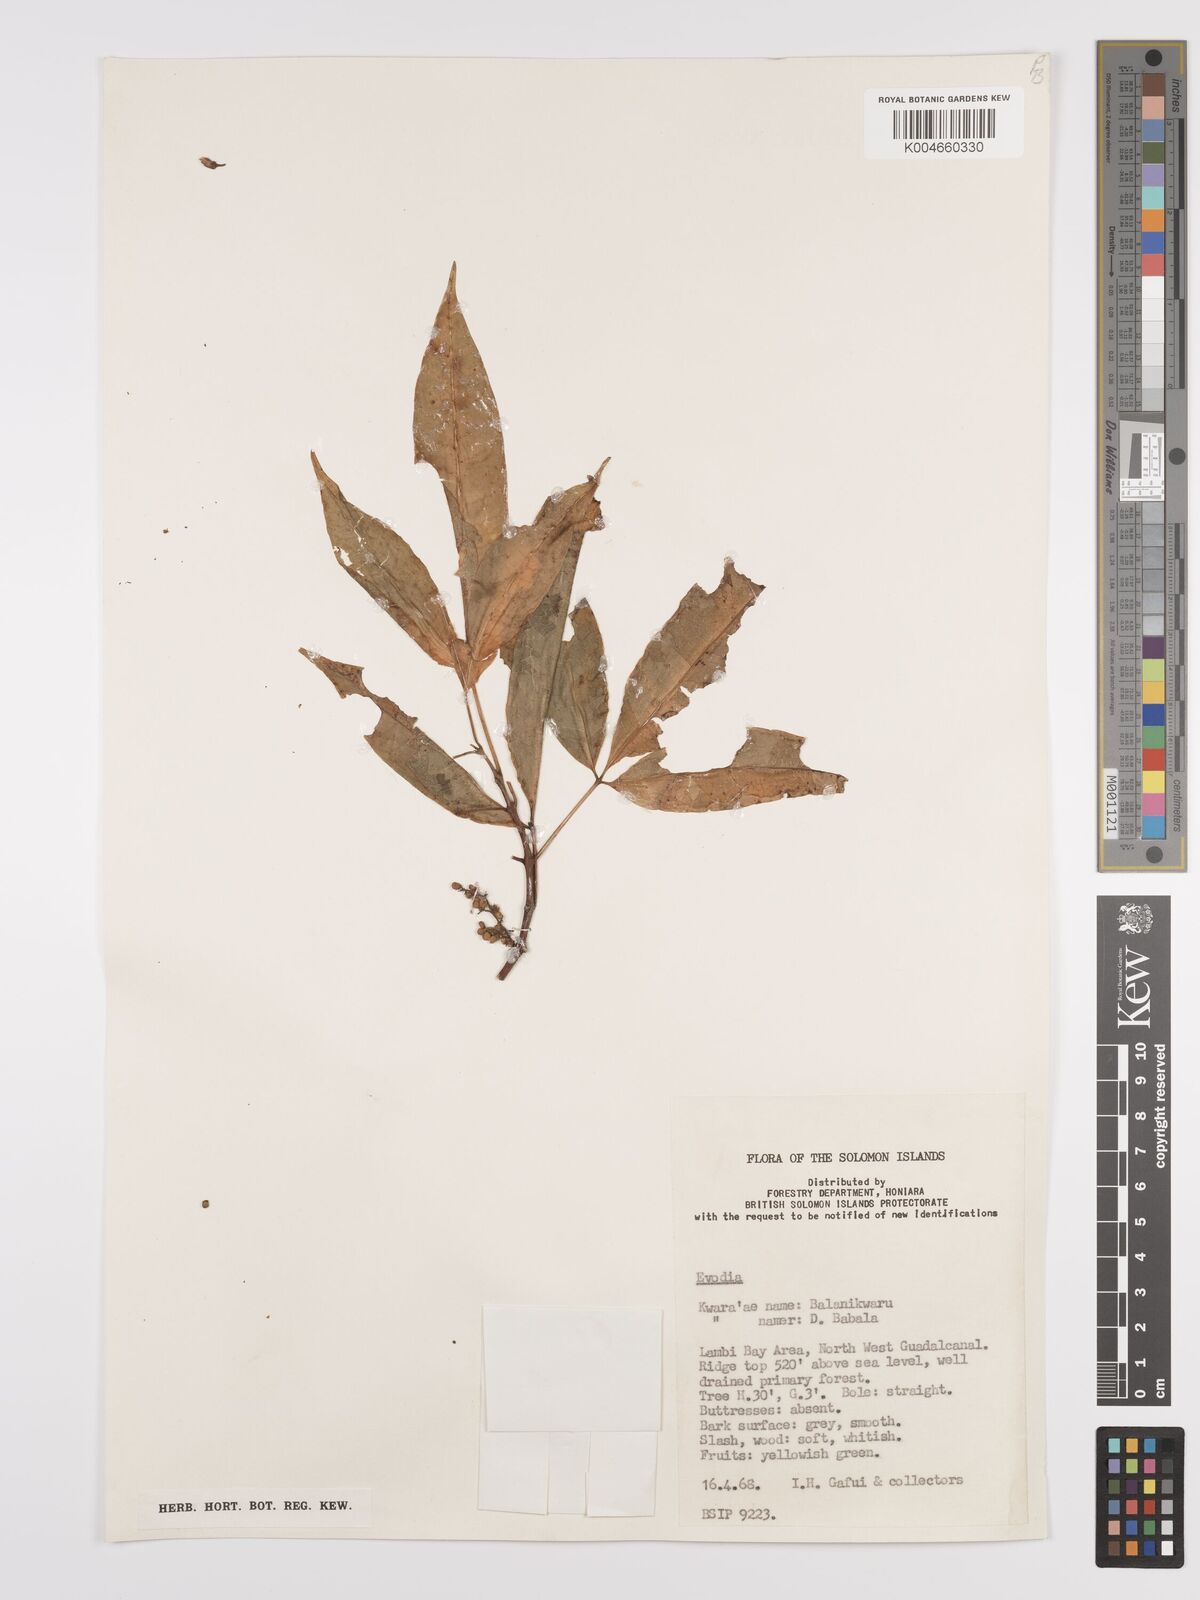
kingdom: Plantae
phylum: Tracheophyta
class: Magnoliopsida
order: Sapindales
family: Rutaceae
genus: Euodia
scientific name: Euodia
